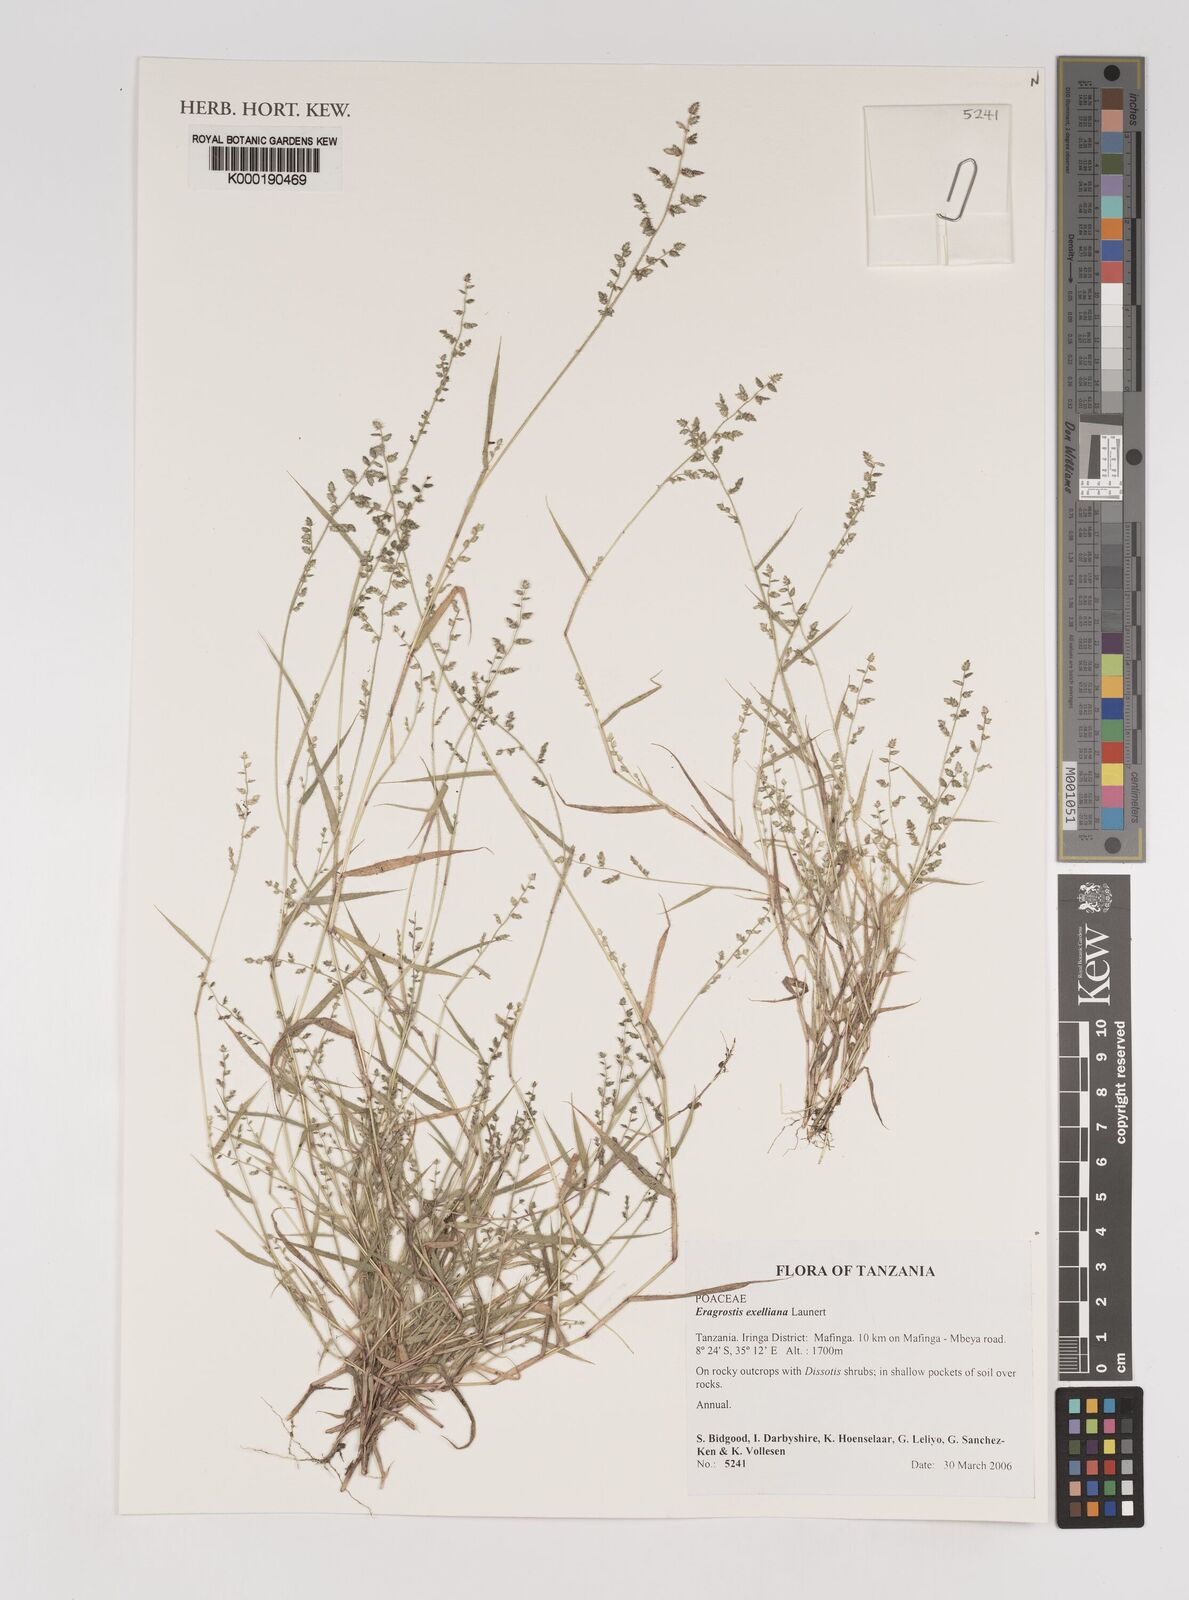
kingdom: Plantae
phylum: Tracheophyta
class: Liliopsida
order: Poales
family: Poaceae
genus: Eragrostis
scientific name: Eragrostis exelliana
